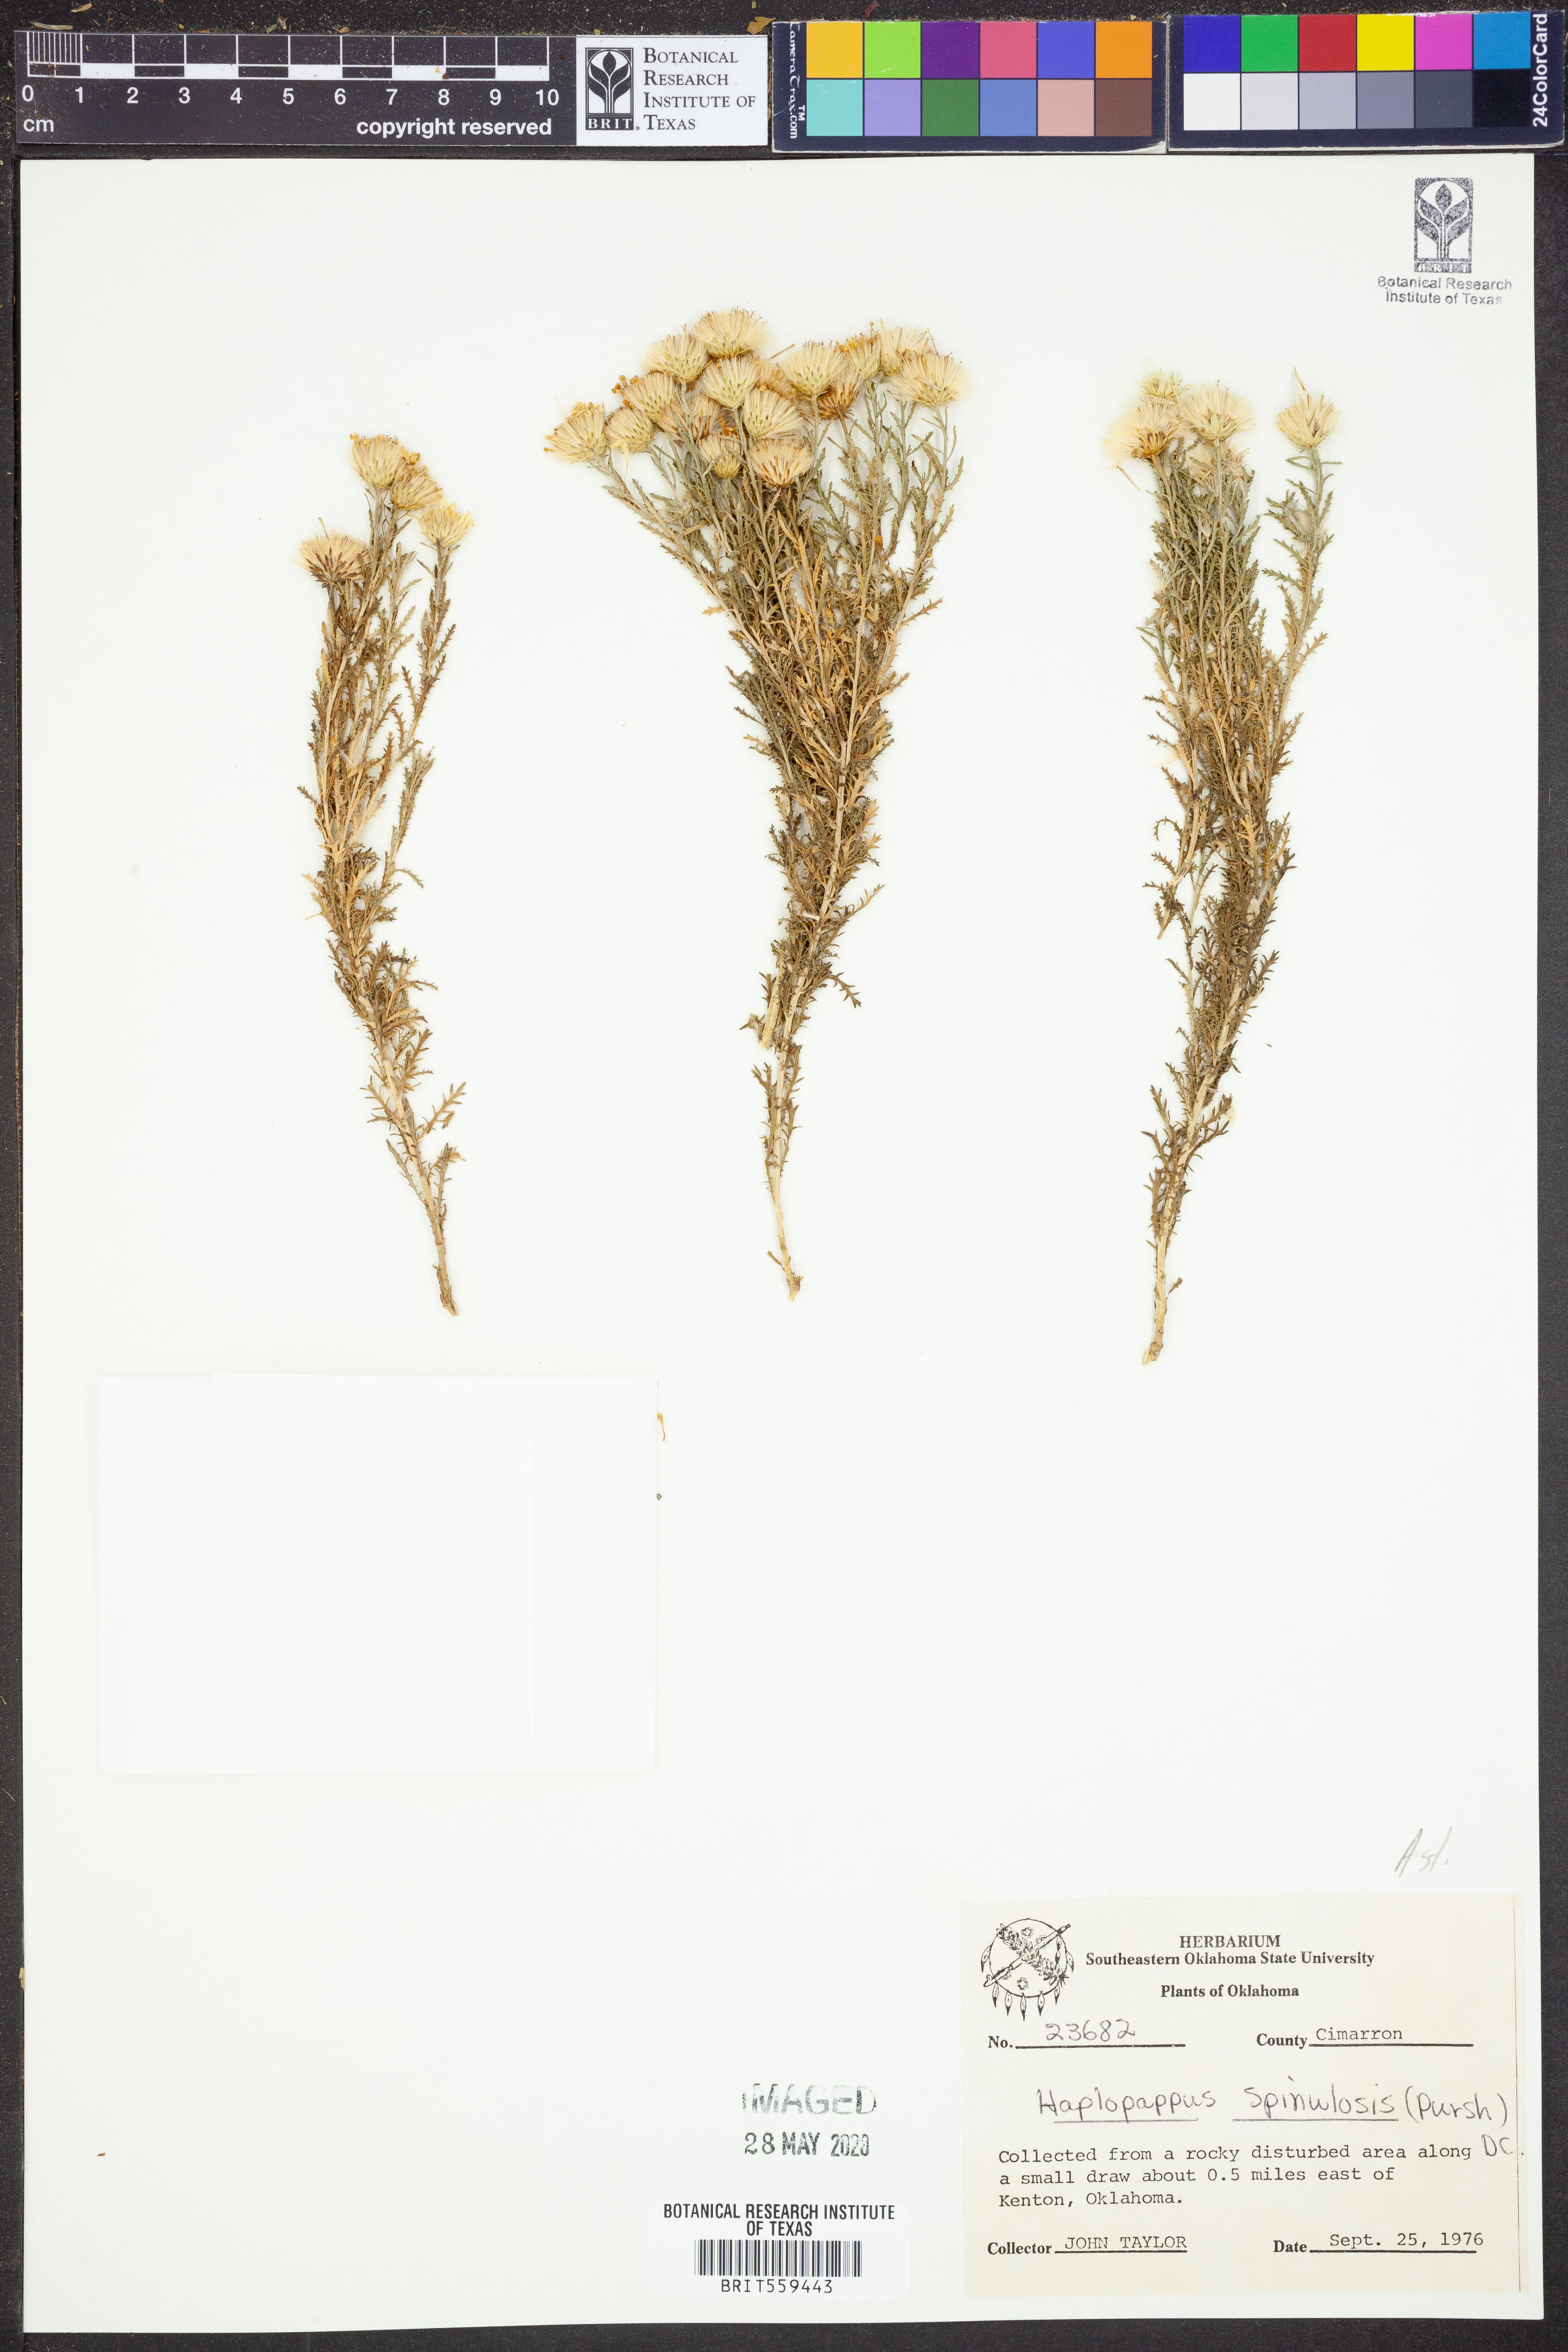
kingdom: Plantae
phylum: Tracheophyta
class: Magnoliopsida
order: Asterales
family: Asteraceae
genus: Xanthisma
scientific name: Xanthisma spinulosum
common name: Spiny goldenweed
